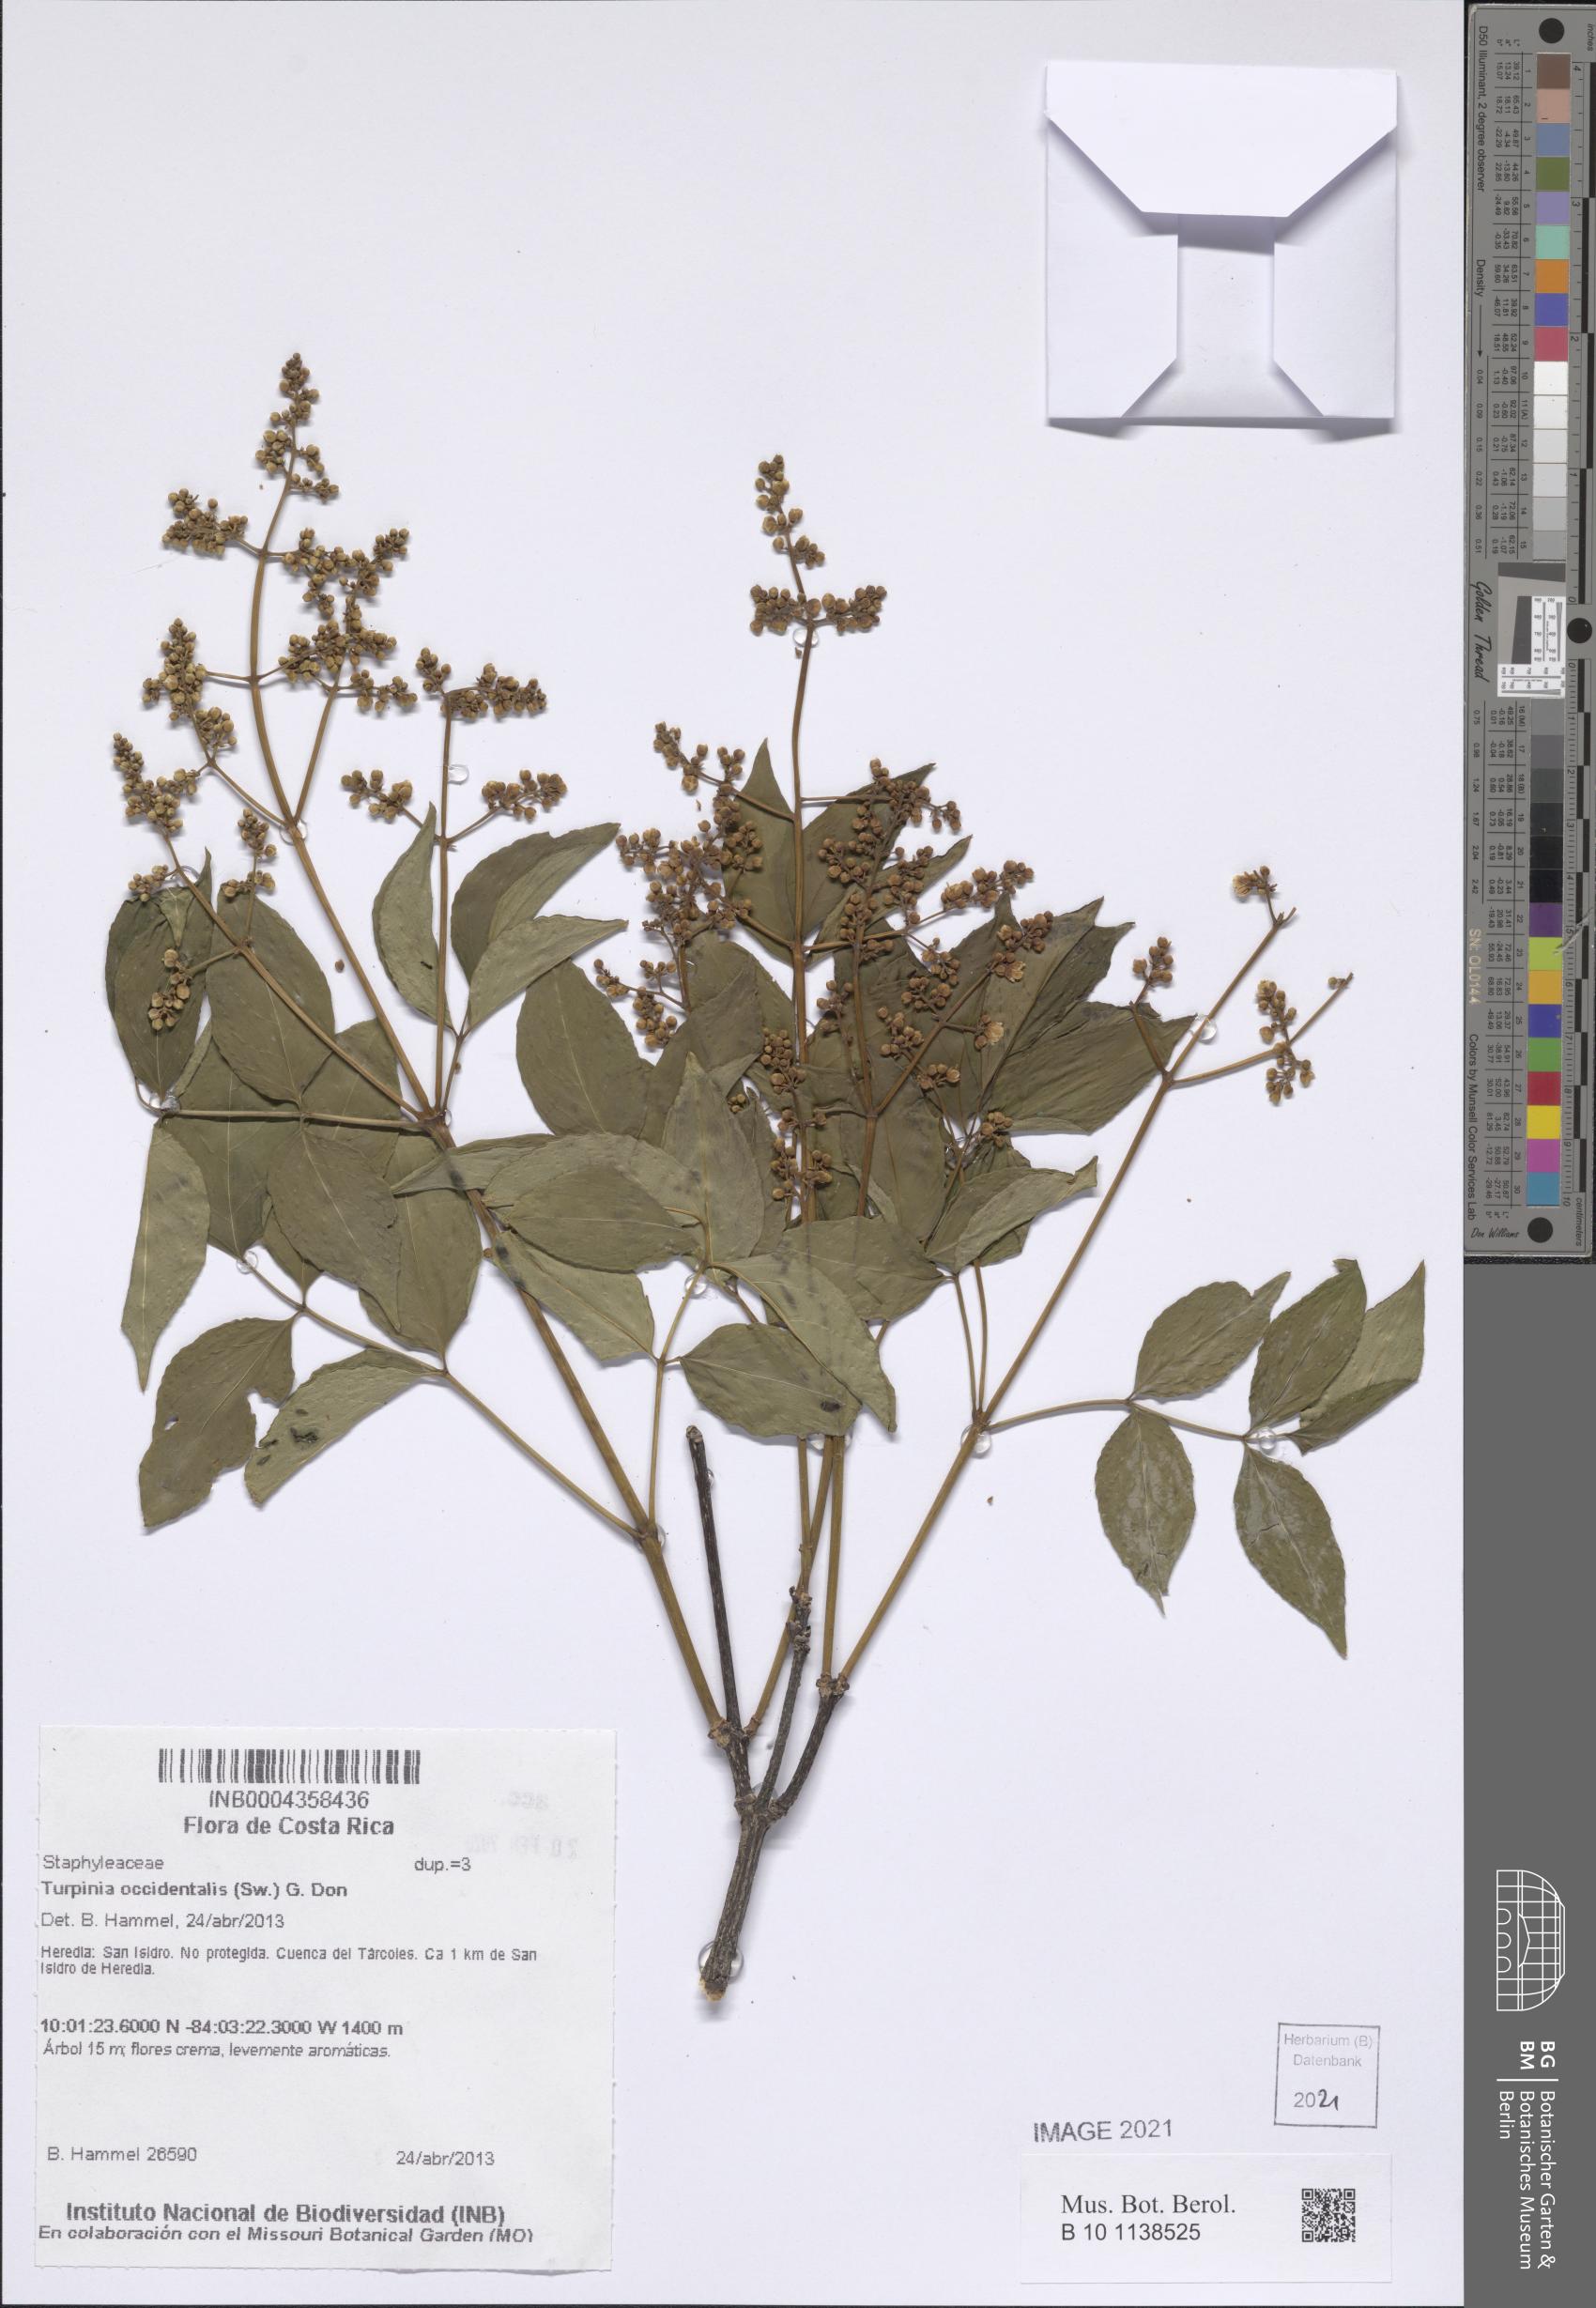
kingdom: Plantae
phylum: Tracheophyta
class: Magnoliopsida
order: Crossosomatales
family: Staphyleaceae
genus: Turpinia
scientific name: Turpinia occidentalis
